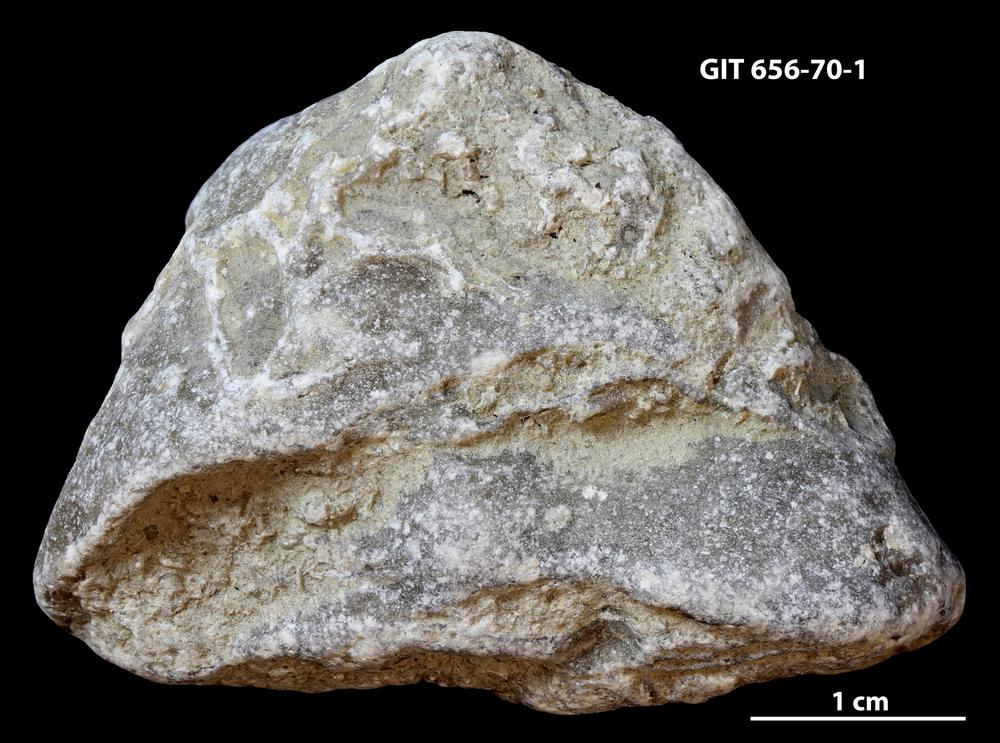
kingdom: Animalia
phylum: Porifera
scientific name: Porifera
